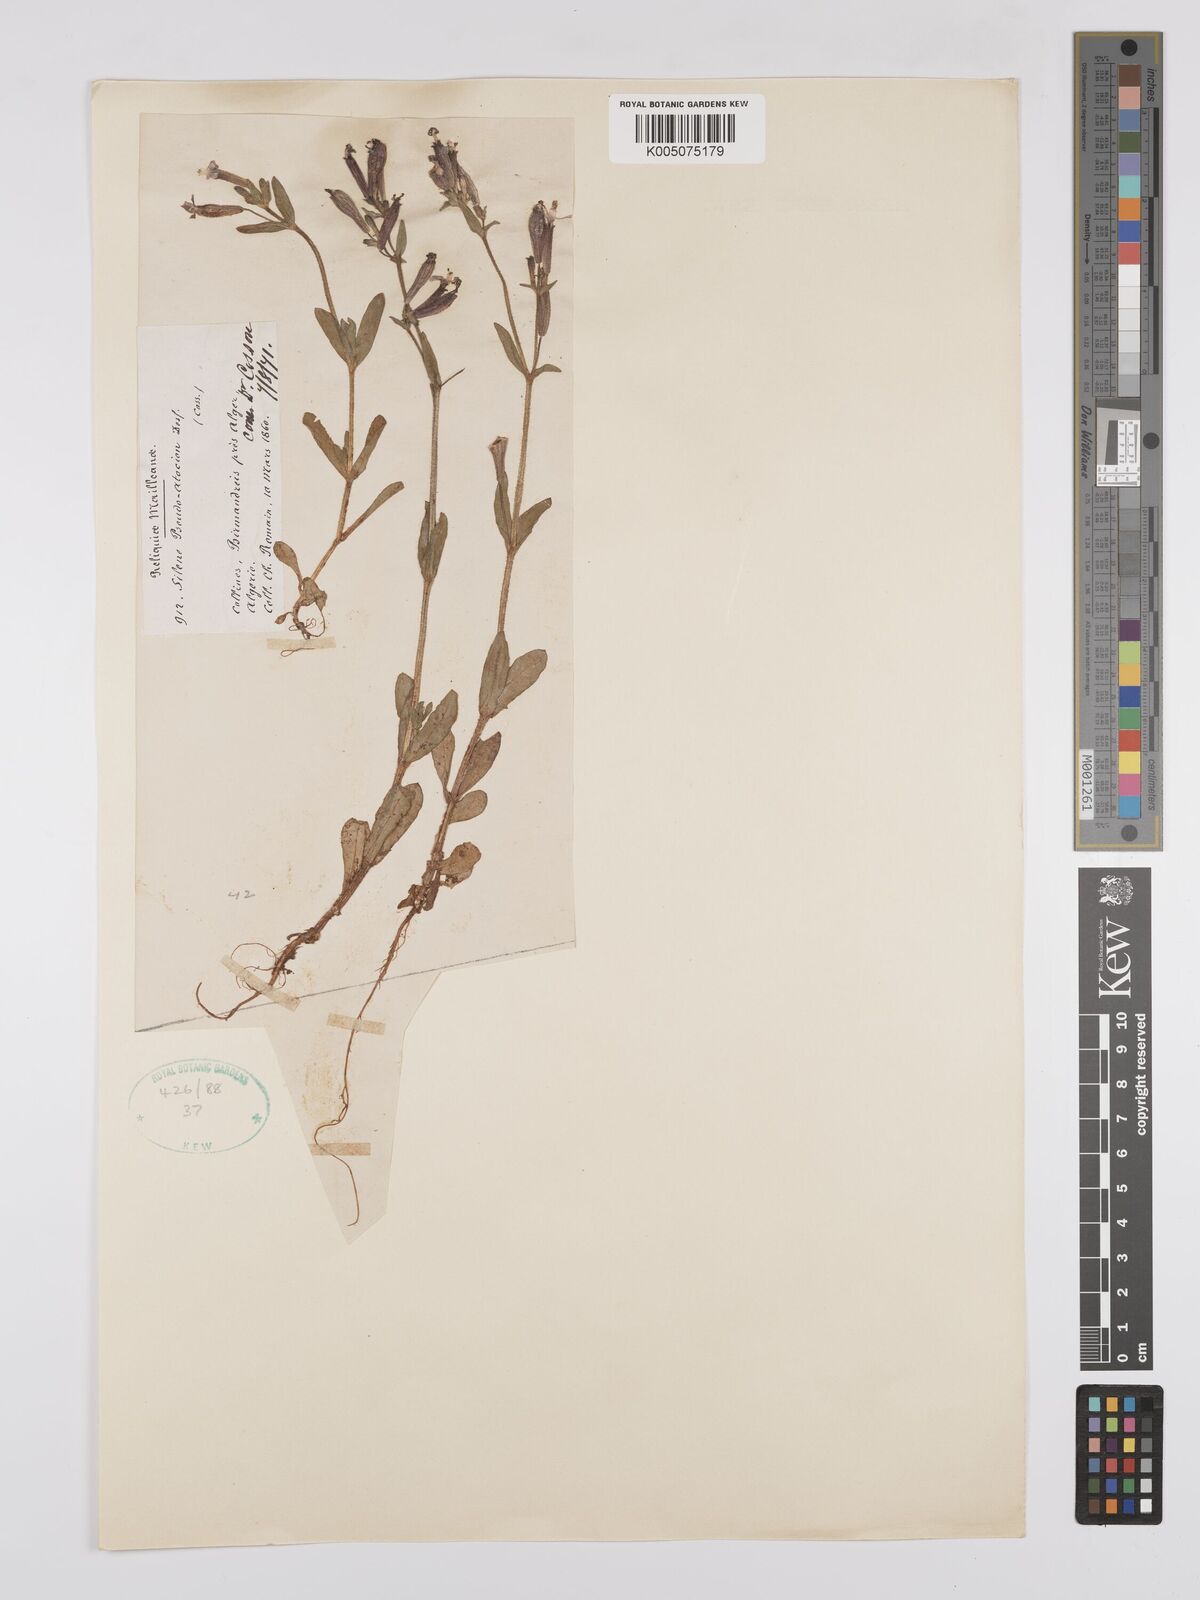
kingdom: Plantae
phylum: Tracheophyta
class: Magnoliopsida
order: Caryophyllales
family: Caryophyllaceae
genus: Silene
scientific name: Silene pseudoatocion
